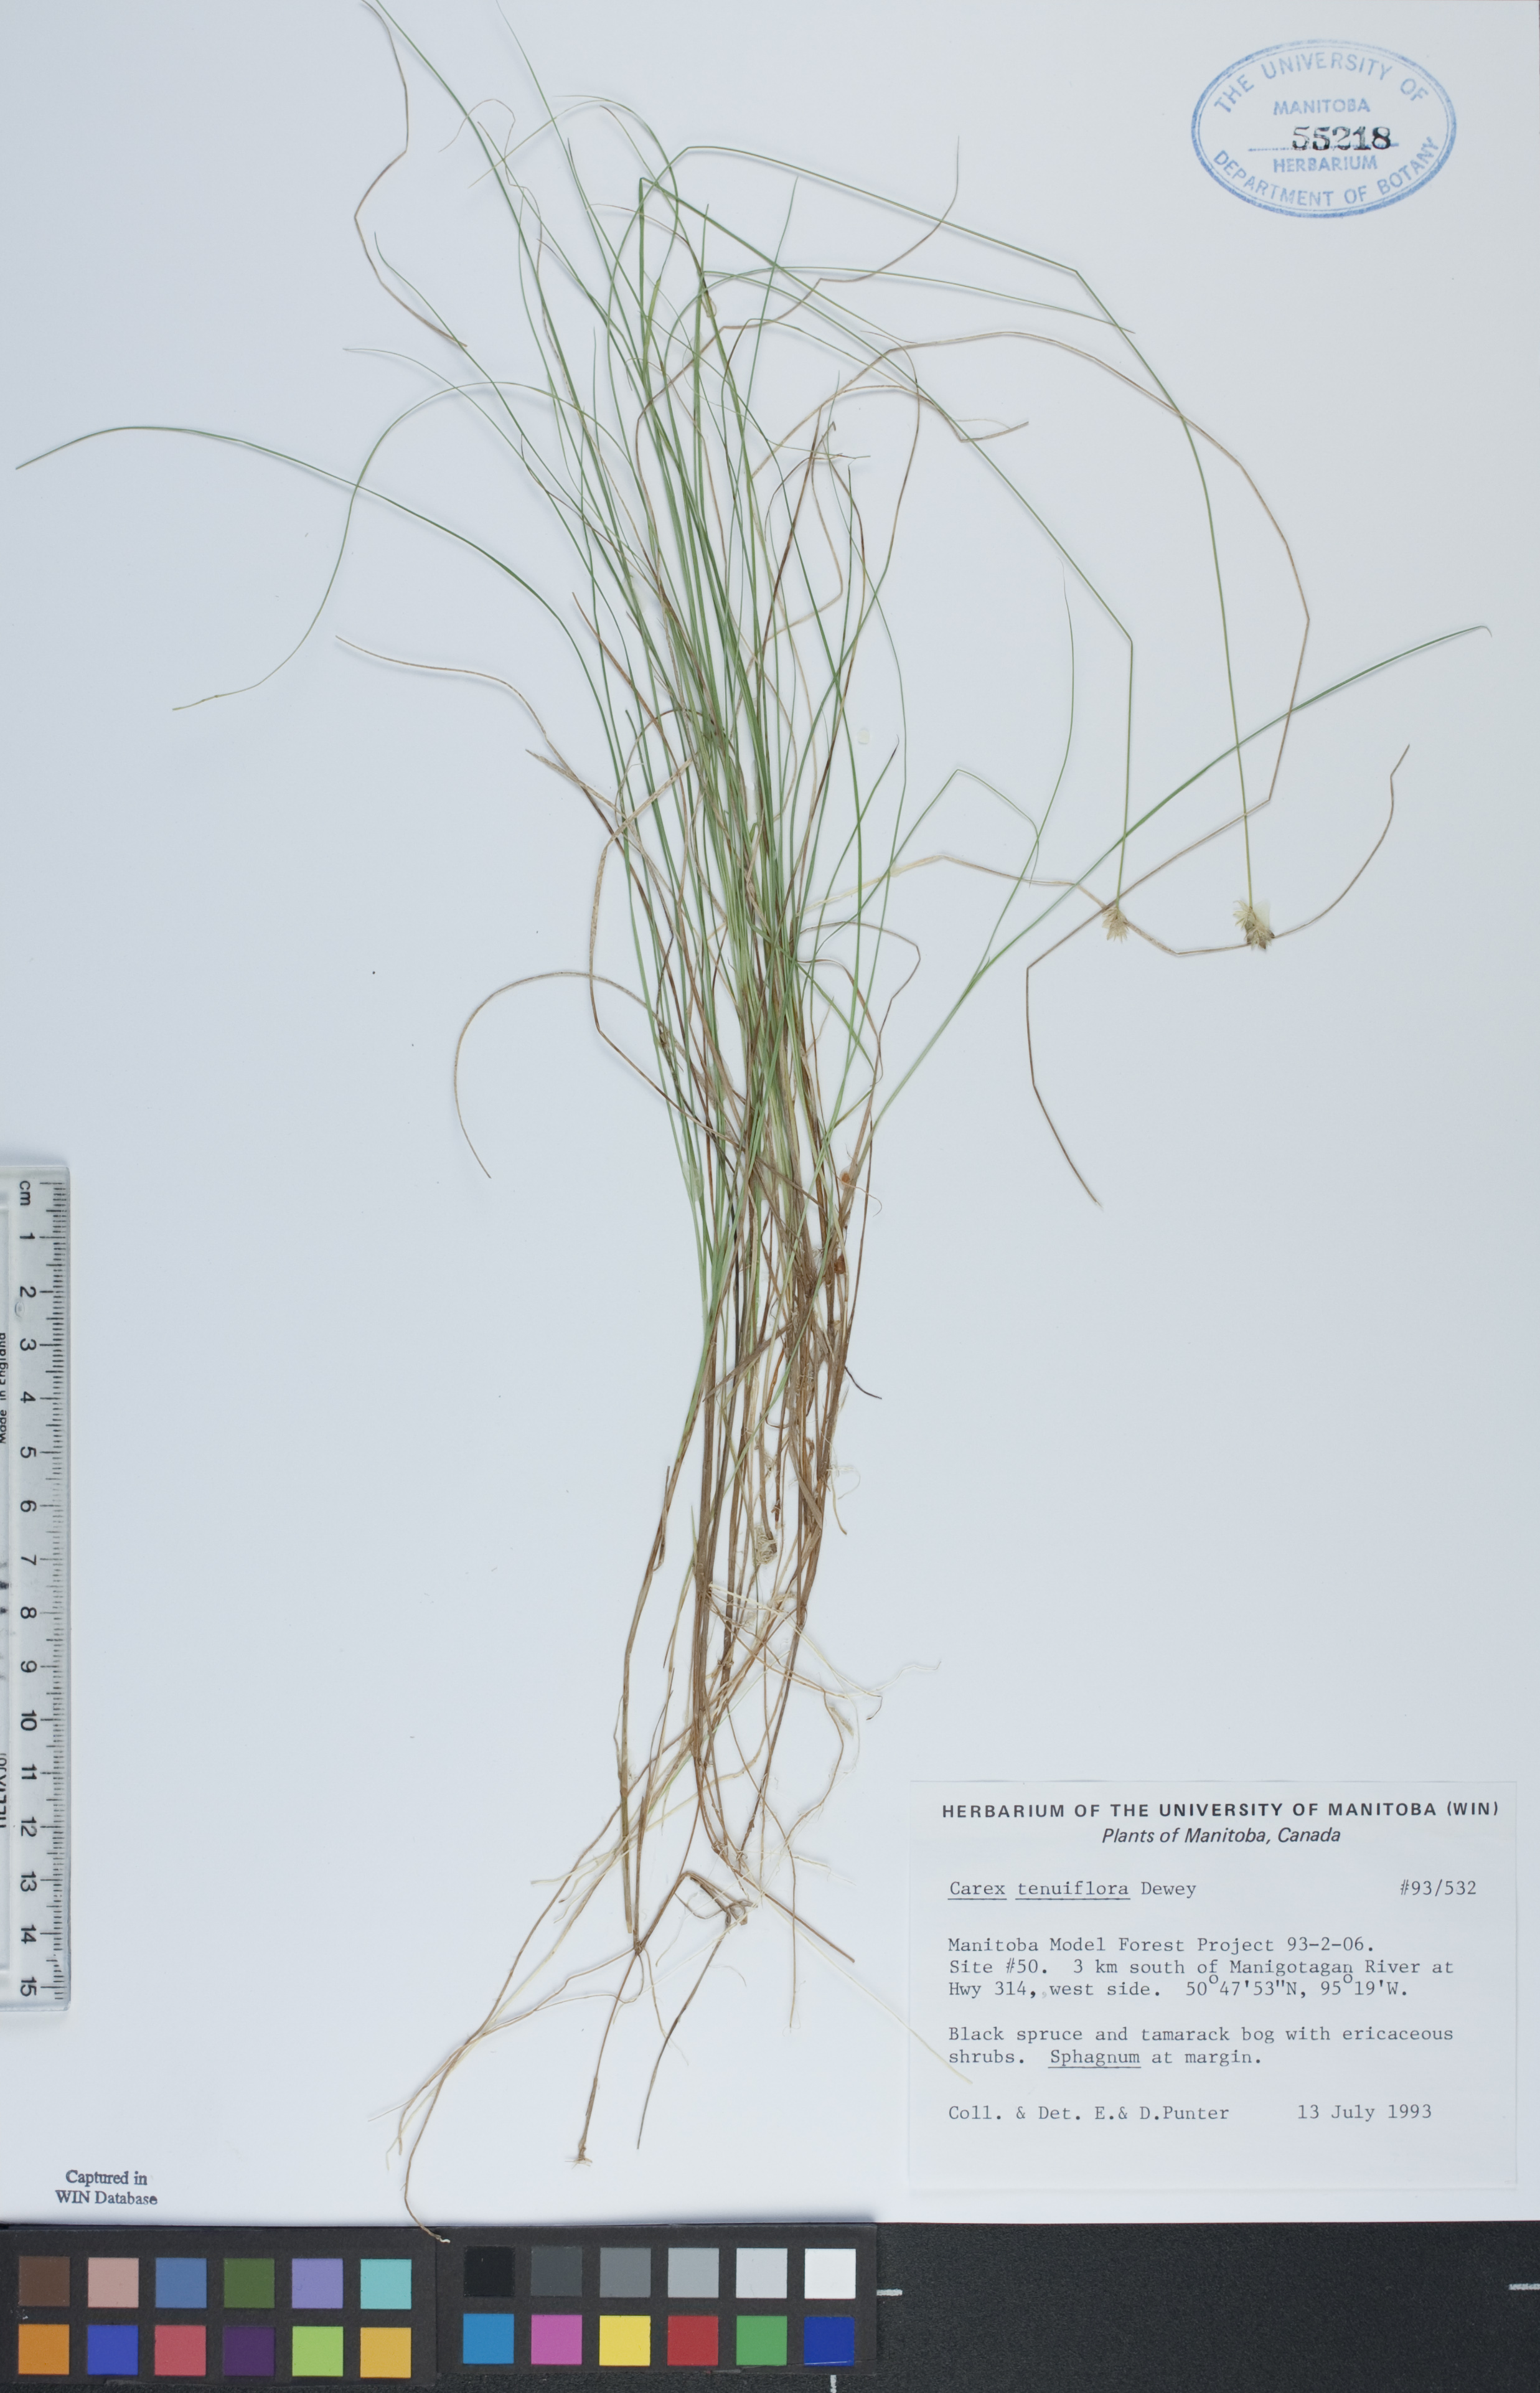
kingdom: Plantae
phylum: Tracheophyta
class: Liliopsida
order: Poales
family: Cyperaceae
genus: Carex
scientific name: Carex tenera
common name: Broad-fruited sedge
